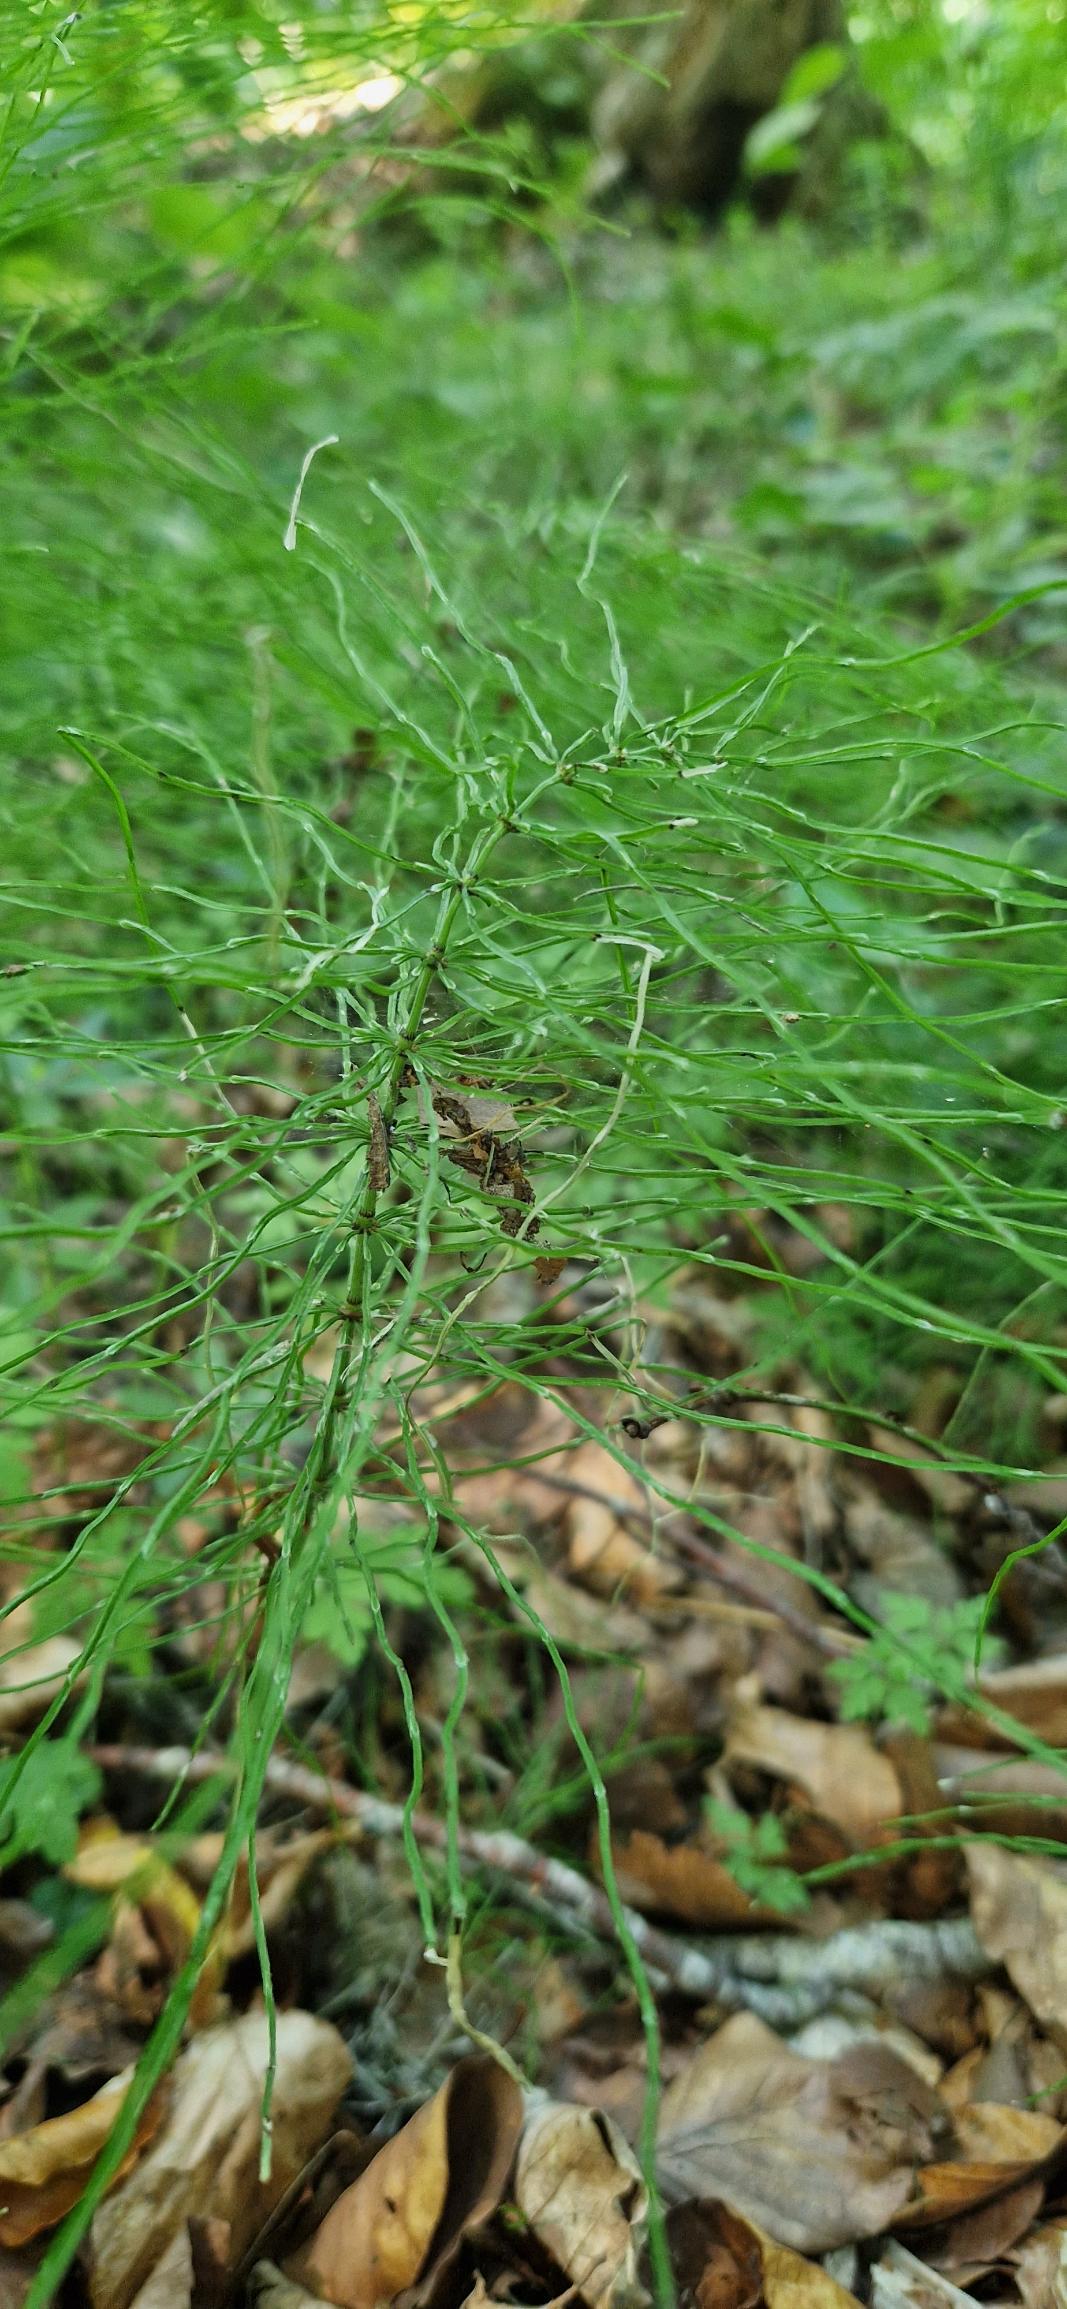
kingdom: Plantae
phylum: Tracheophyta
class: Polypodiopsida
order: Equisetales
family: Equisetaceae
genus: Equisetum
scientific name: Equisetum pratense
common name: Lund-padderok
